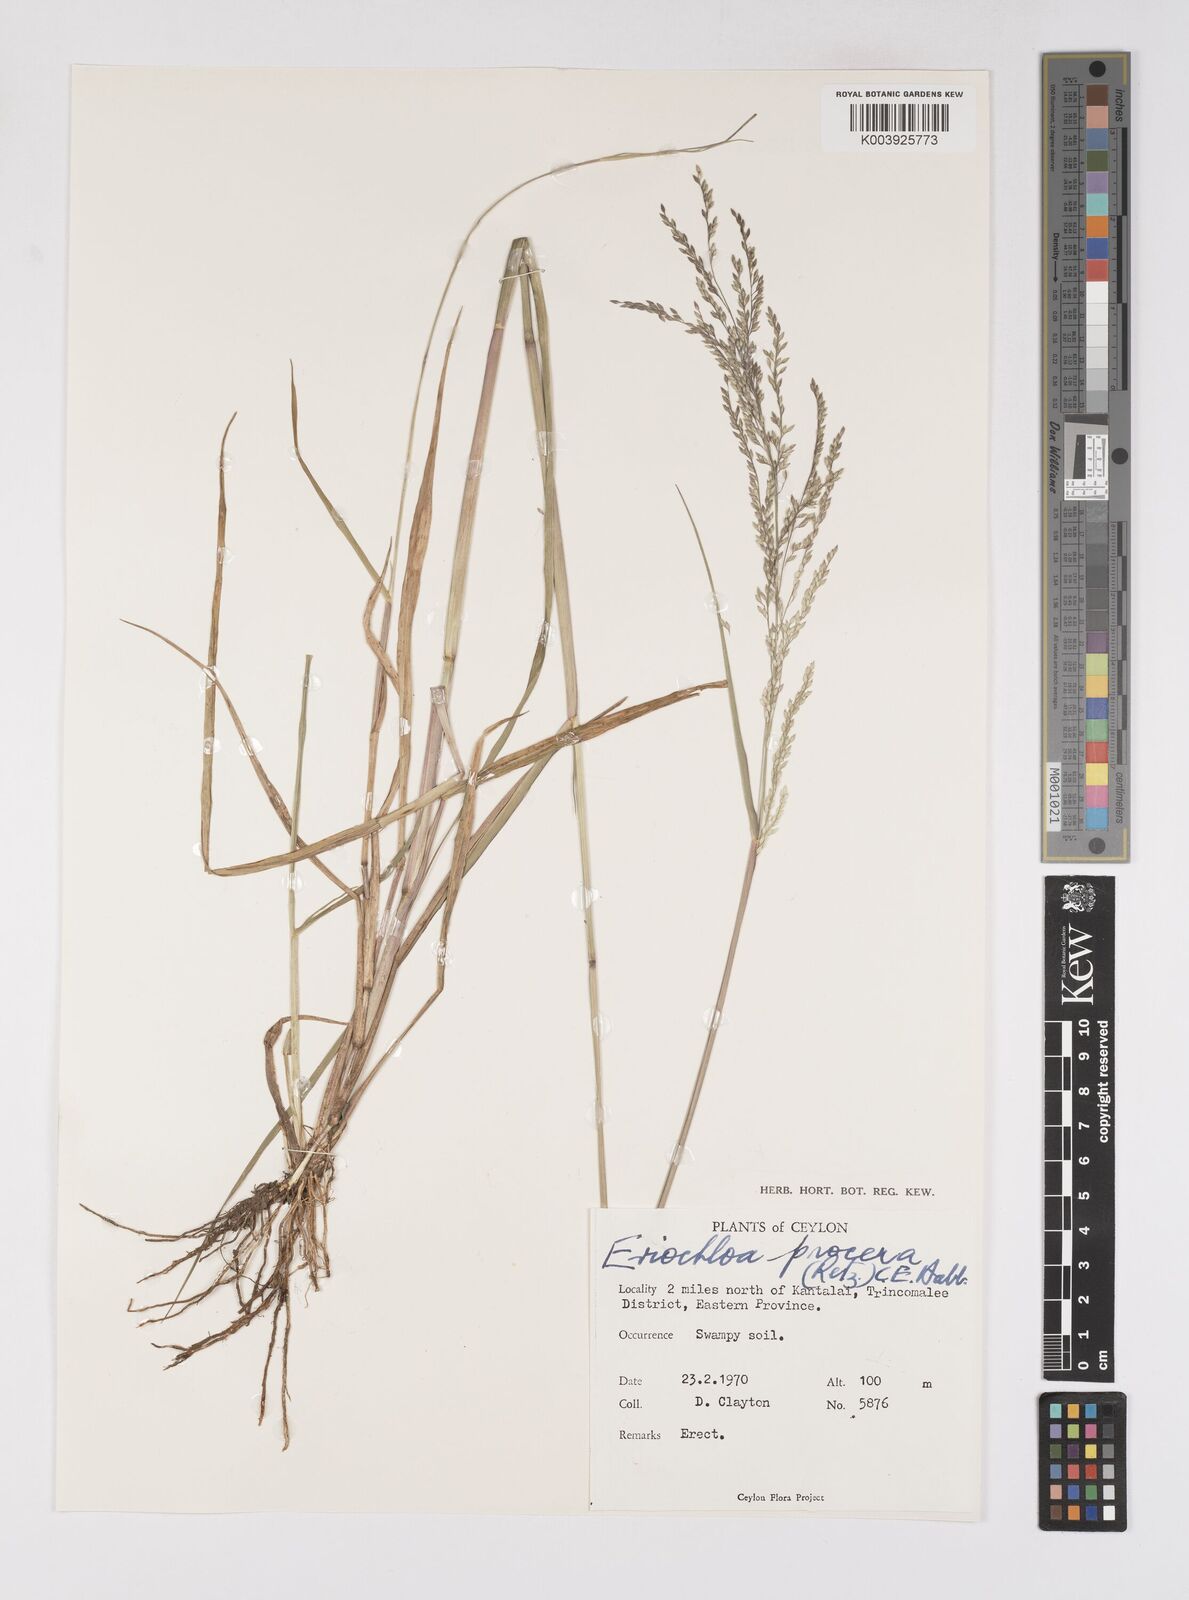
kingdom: Plantae
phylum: Tracheophyta
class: Liliopsida
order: Poales
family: Poaceae
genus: Eriochloa
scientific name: Eriochloa procera
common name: Spring grass
